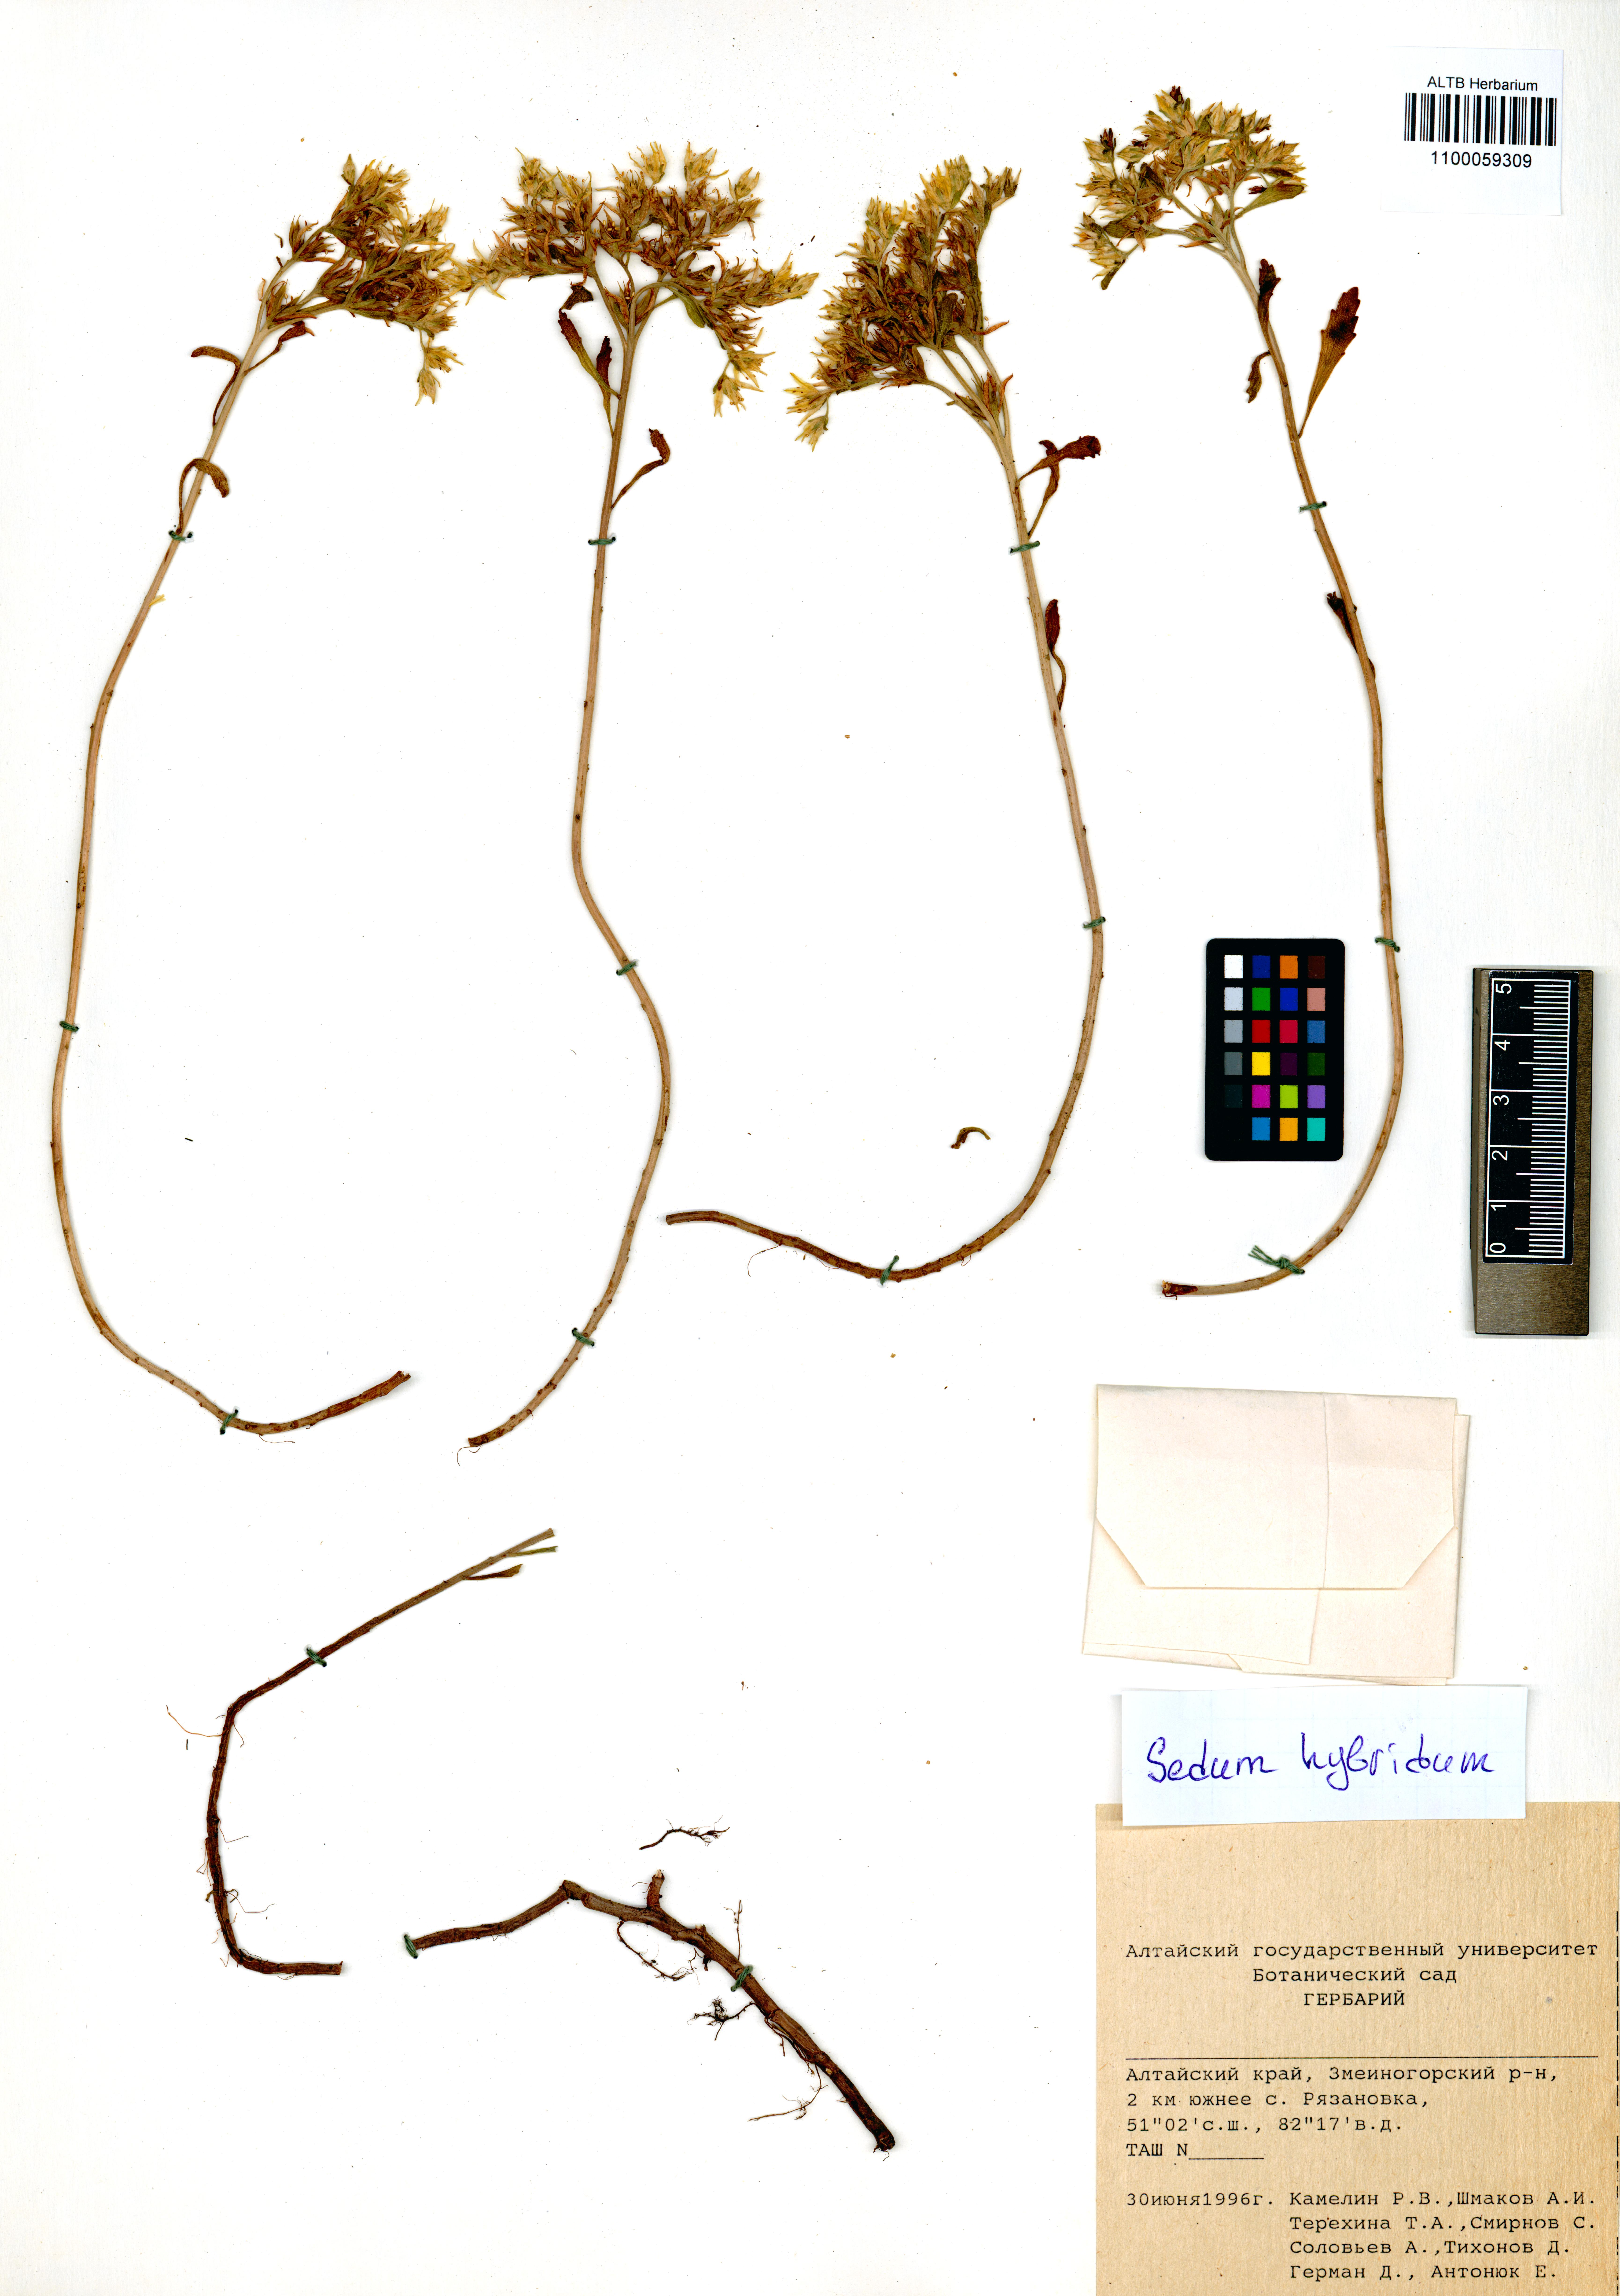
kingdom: Plantae
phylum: Tracheophyta
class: Magnoliopsida
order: Saxifragales
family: Crassulaceae
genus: Phedimus
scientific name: Phedimus hybridus
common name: Hybrid stonecrop
